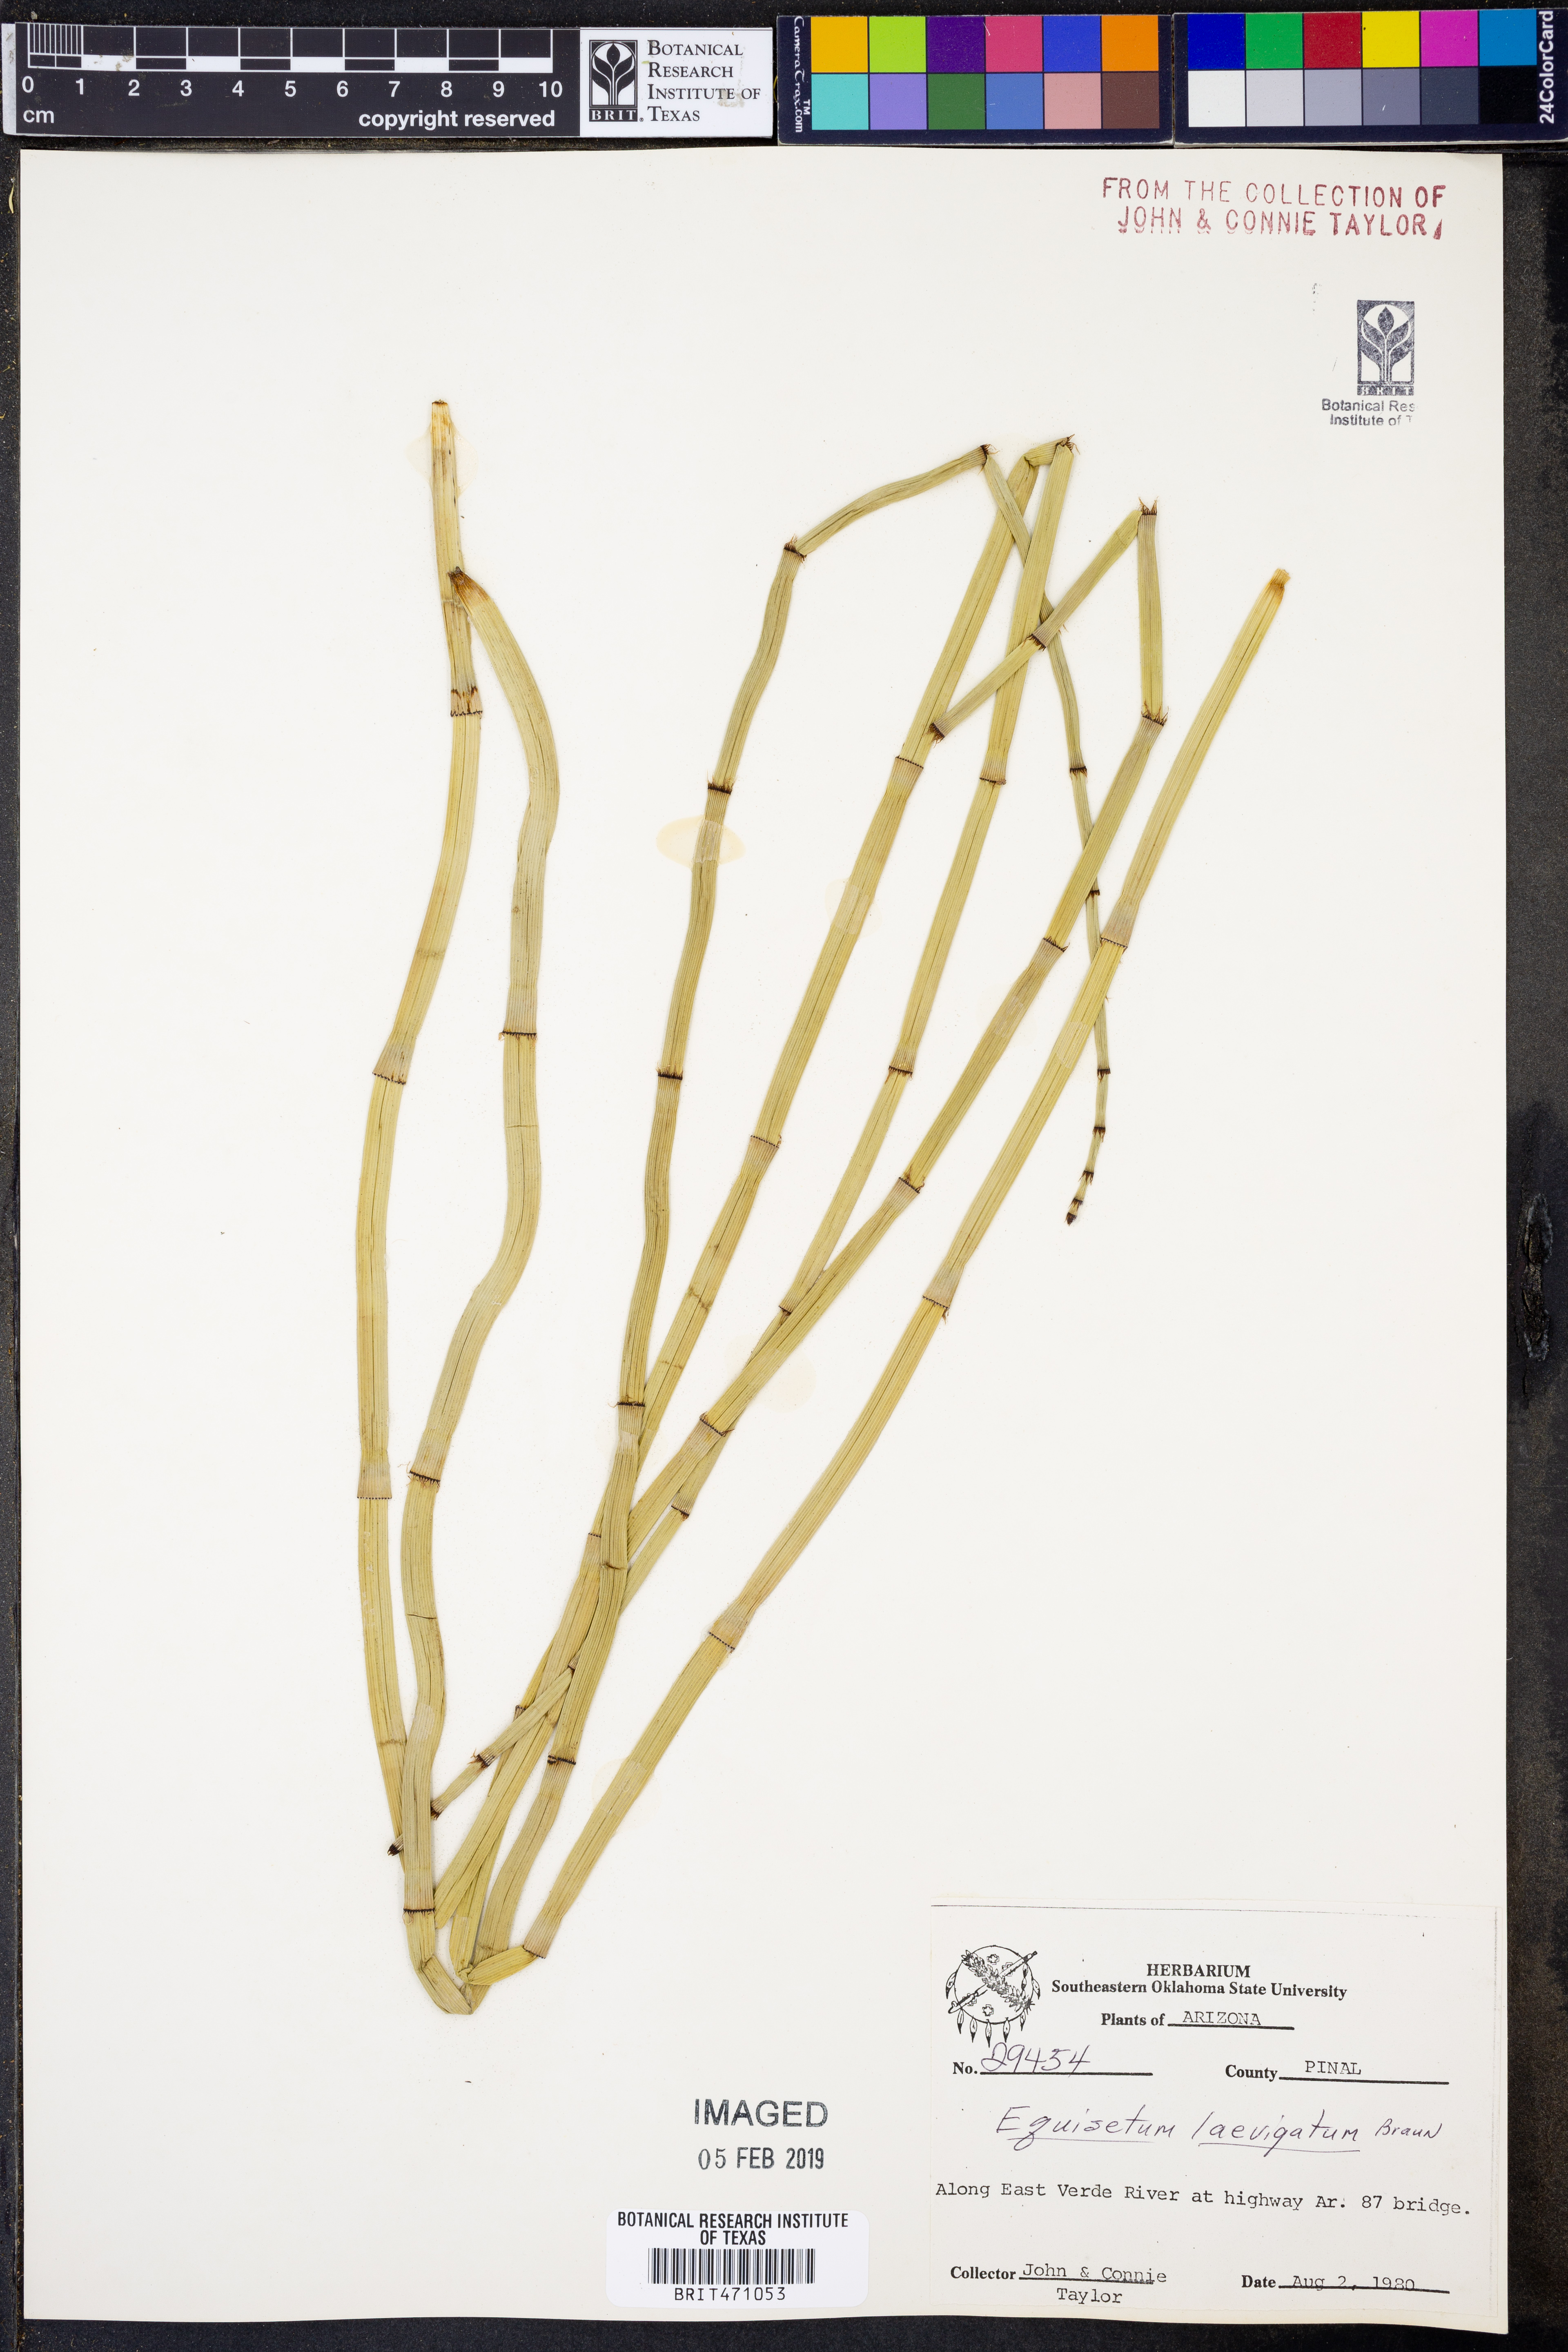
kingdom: Plantae
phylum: Tracheophyta
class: Polypodiopsida
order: Equisetales
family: Equisetaceae
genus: Equisetum
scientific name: Equisetum laevigatum
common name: Smooth scouring-rush
